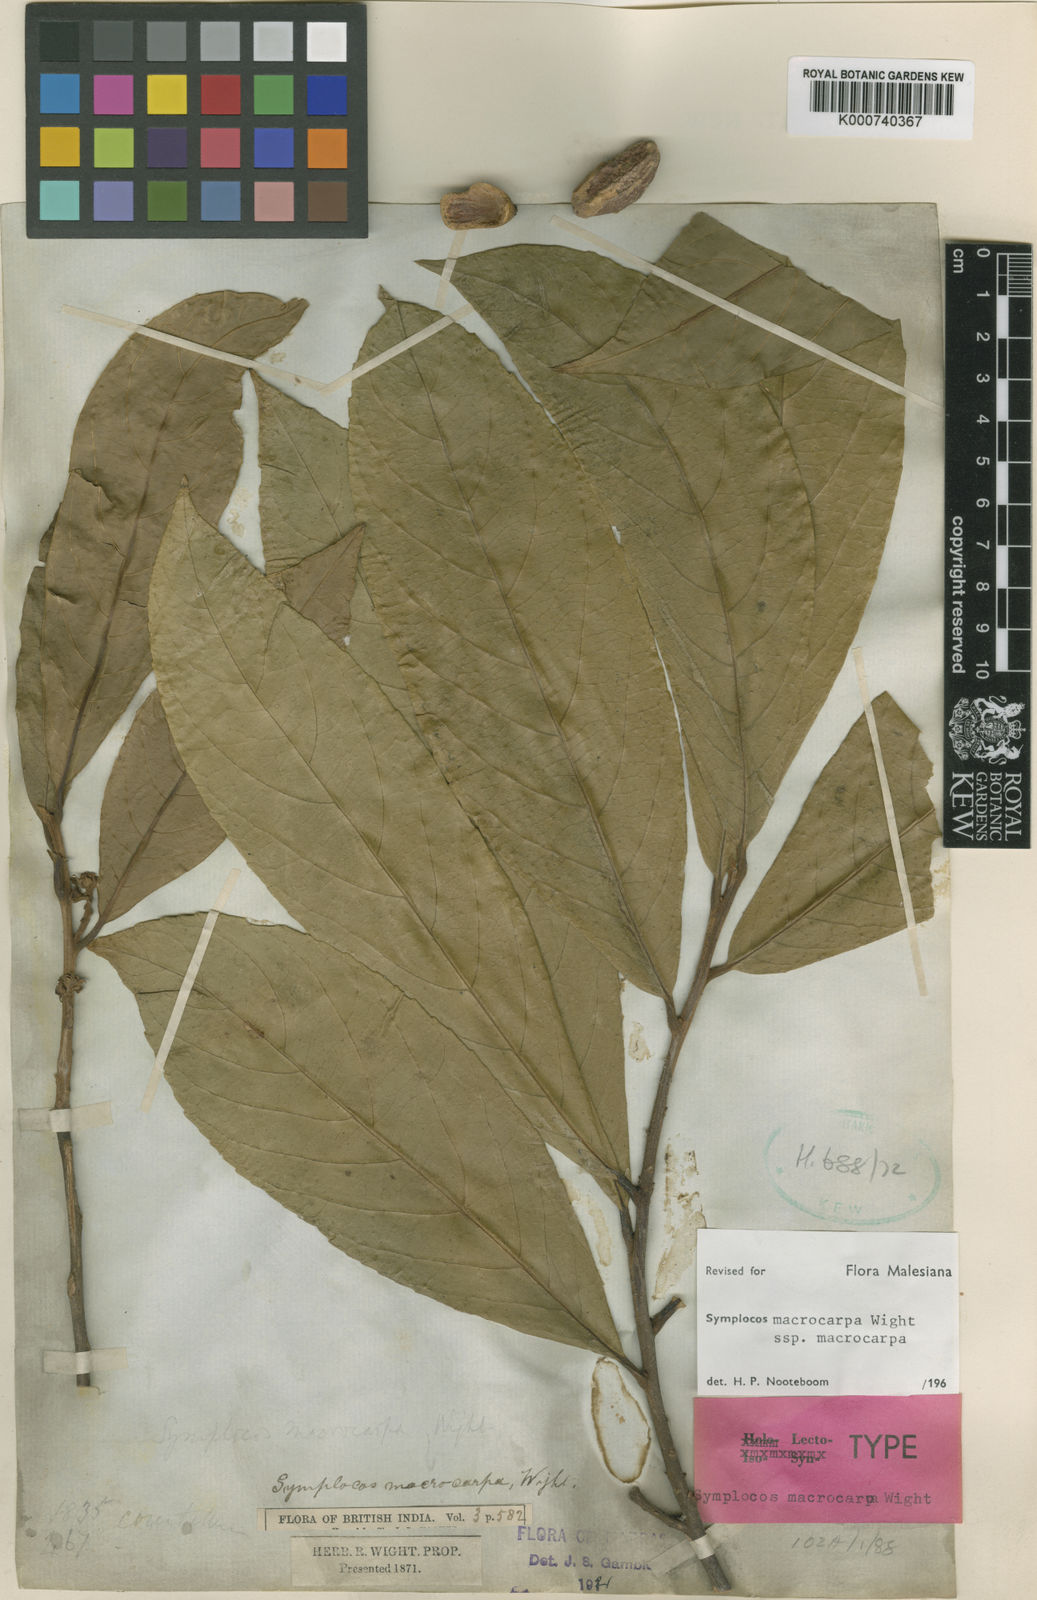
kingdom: Plantae
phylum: Tracheophyta
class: Magnoliopsida
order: Ericales
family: Symplocaceae
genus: Symplocos
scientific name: Symplocos macrocarpa
